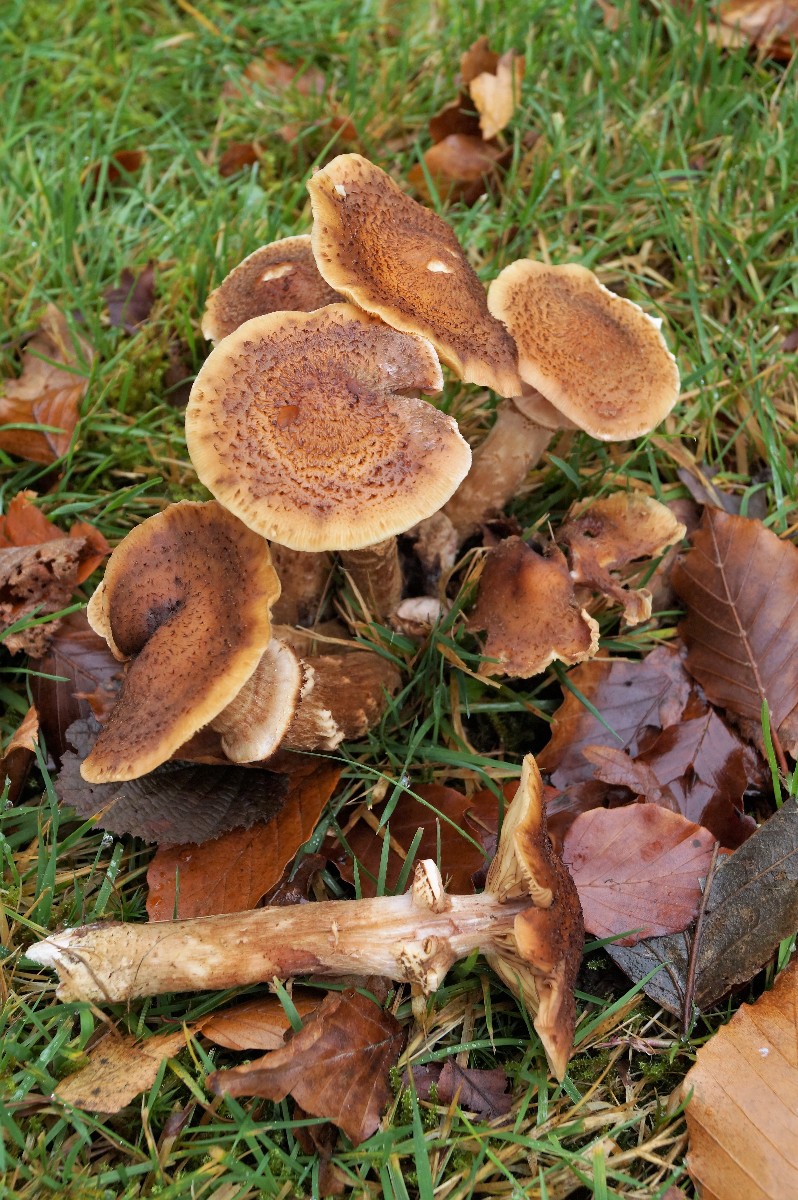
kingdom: Fungi
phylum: Basidiomycota
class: Agaricomycetes
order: Agaricales
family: Physalacriaceae
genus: Armillaria
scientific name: Armillaria lutea
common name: køllestokket honningsvamp
